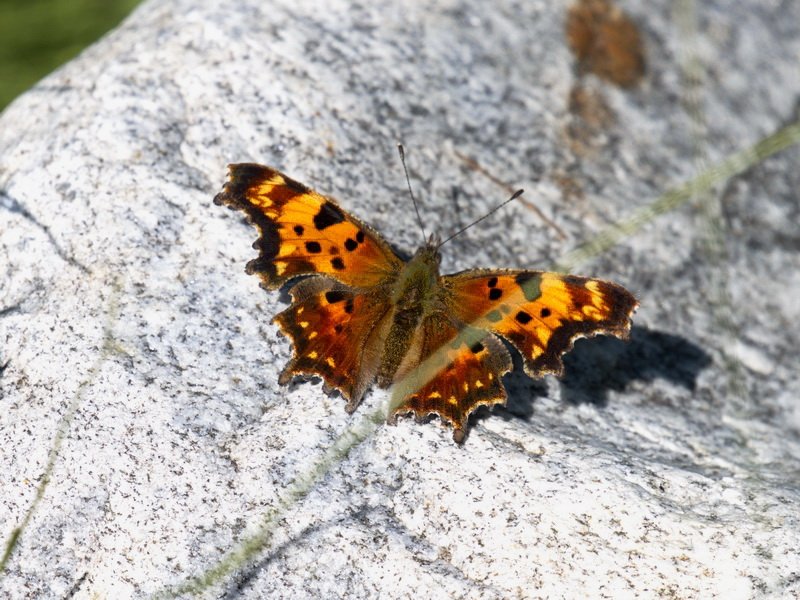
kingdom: Animalia
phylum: Arthropoda
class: Insecta
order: Lepidoptera
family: Nymphalidae
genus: Polygonia
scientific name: Polygonia faunus
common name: Green Comma
